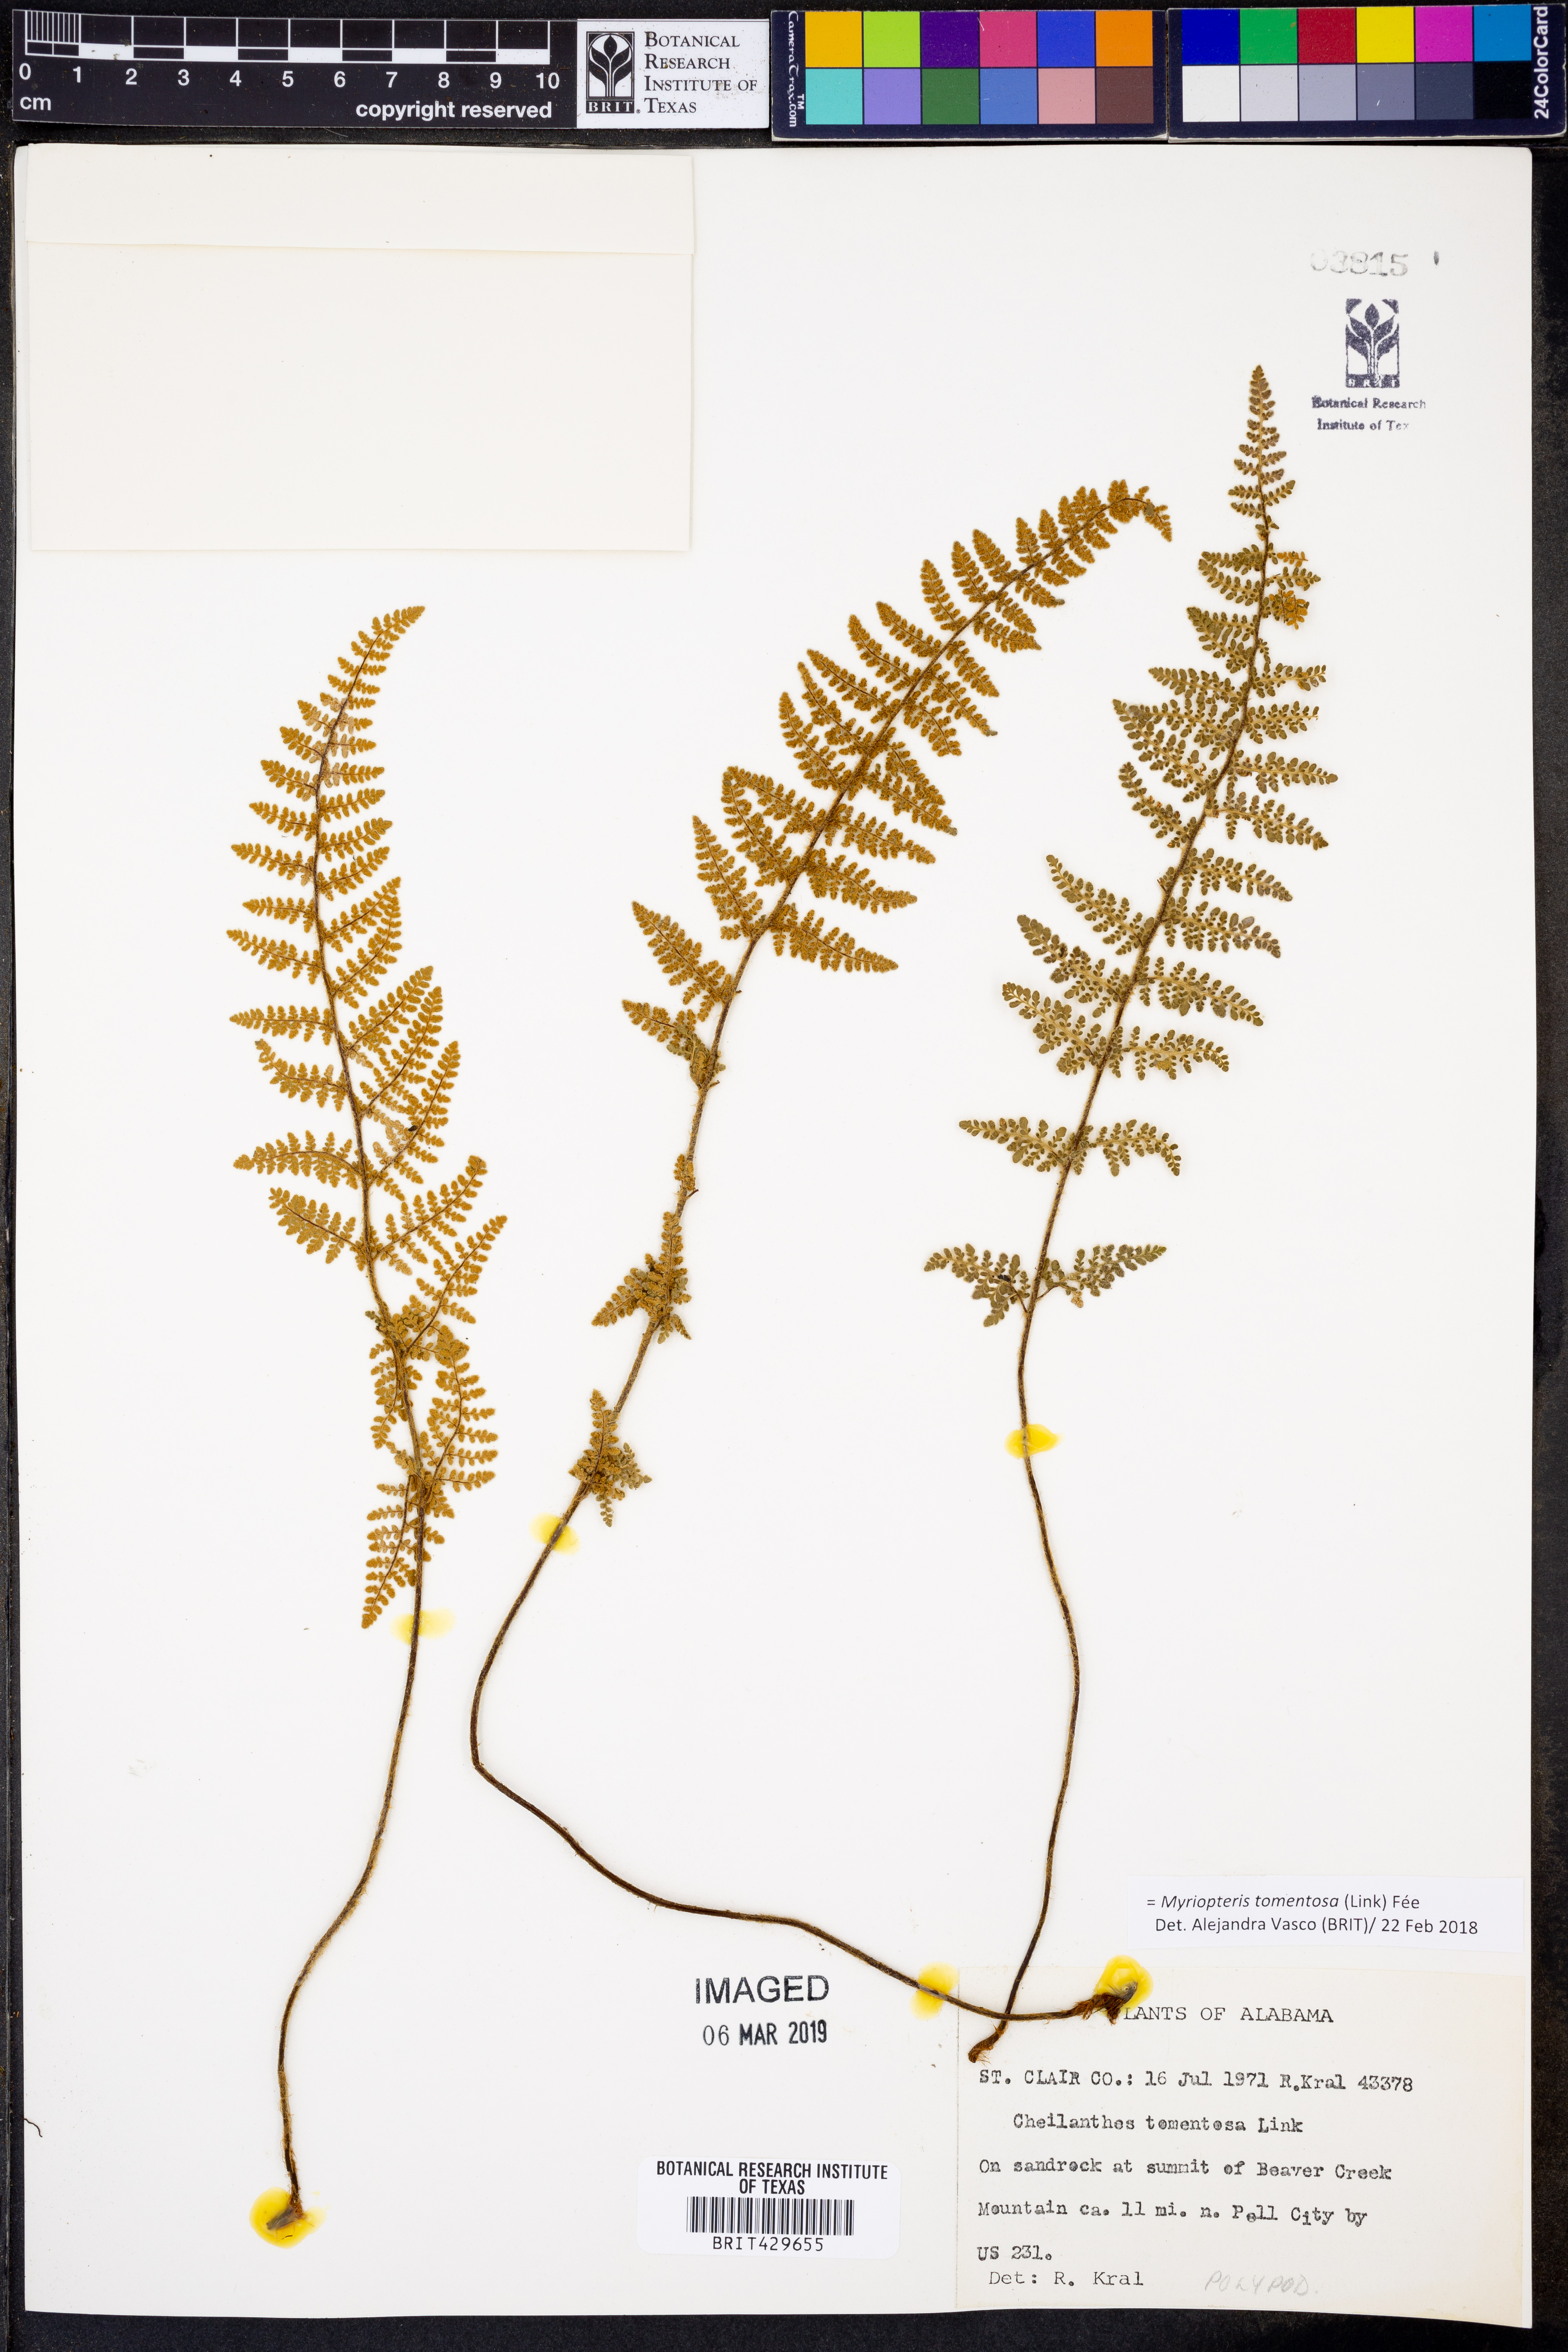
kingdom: Plantae
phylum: Tracheophyta
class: Polypodiopsida
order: Polypodiales
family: Pteridaceae
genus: Myriopteris
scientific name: Myriopteris tomentosa
